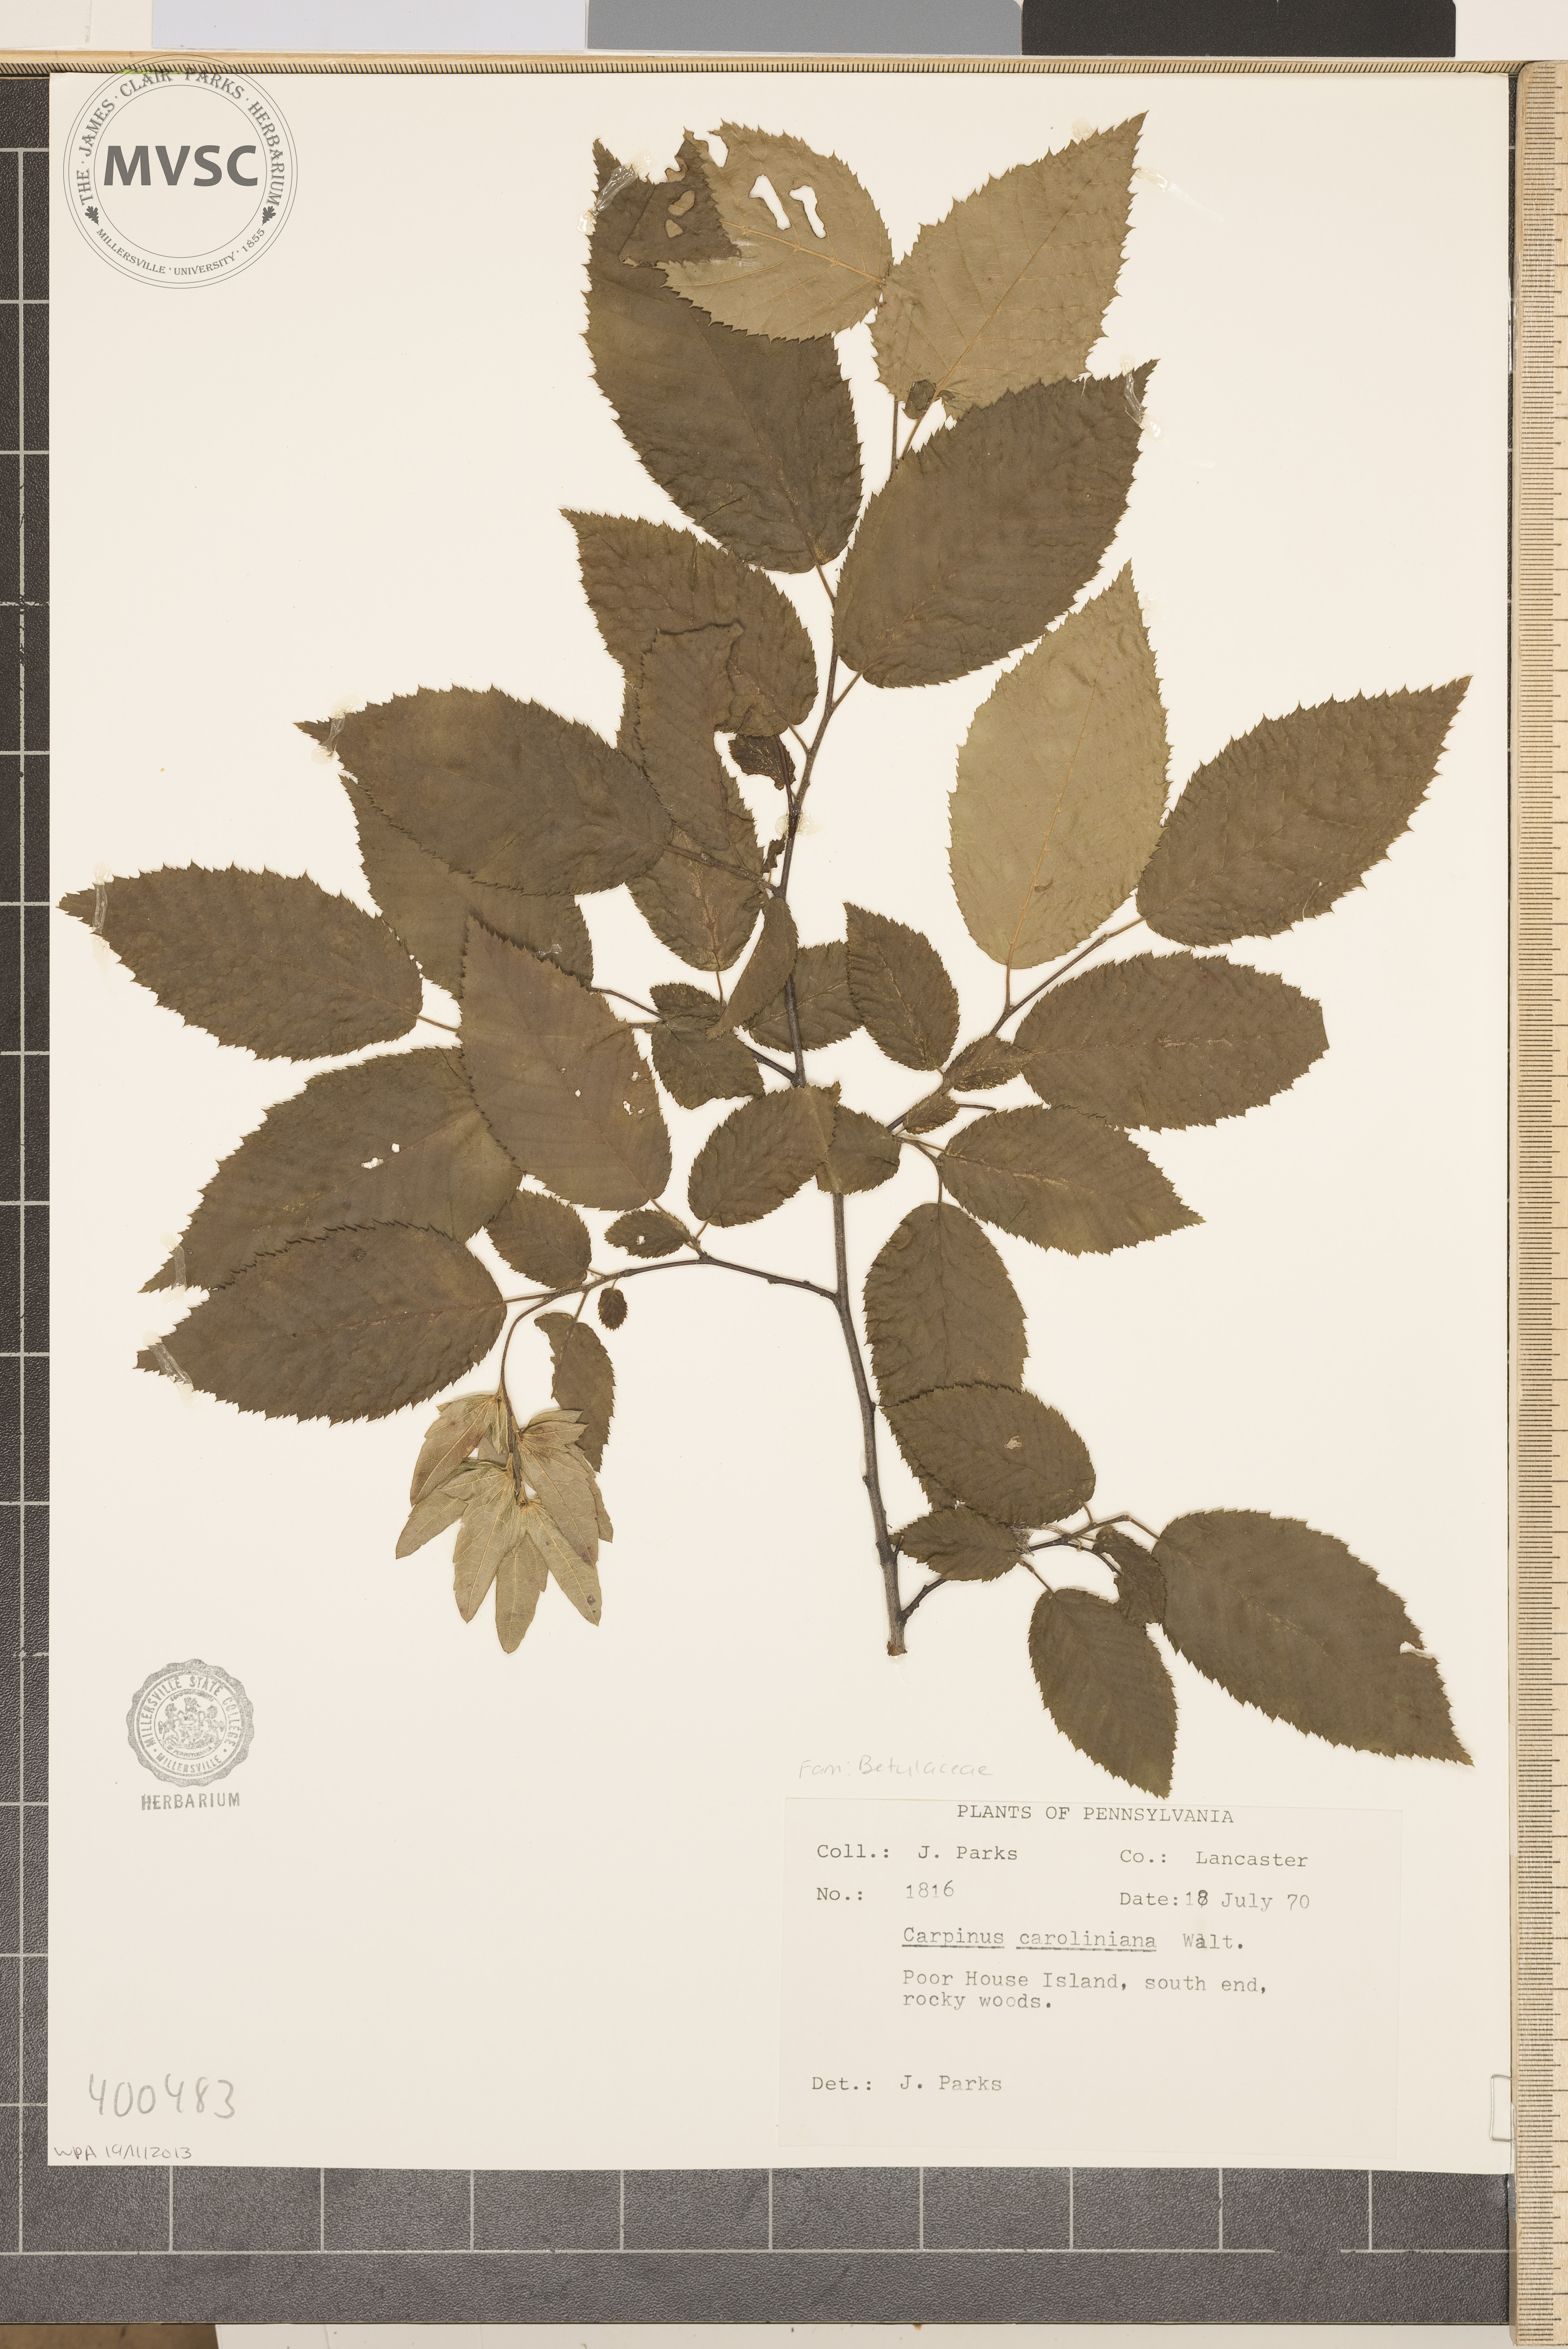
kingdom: Plantae
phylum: Tracheophyta
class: Magnoliopsida
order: Fagales
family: Betulaceae
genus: Carpinus
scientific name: Carpinus caroliniana
